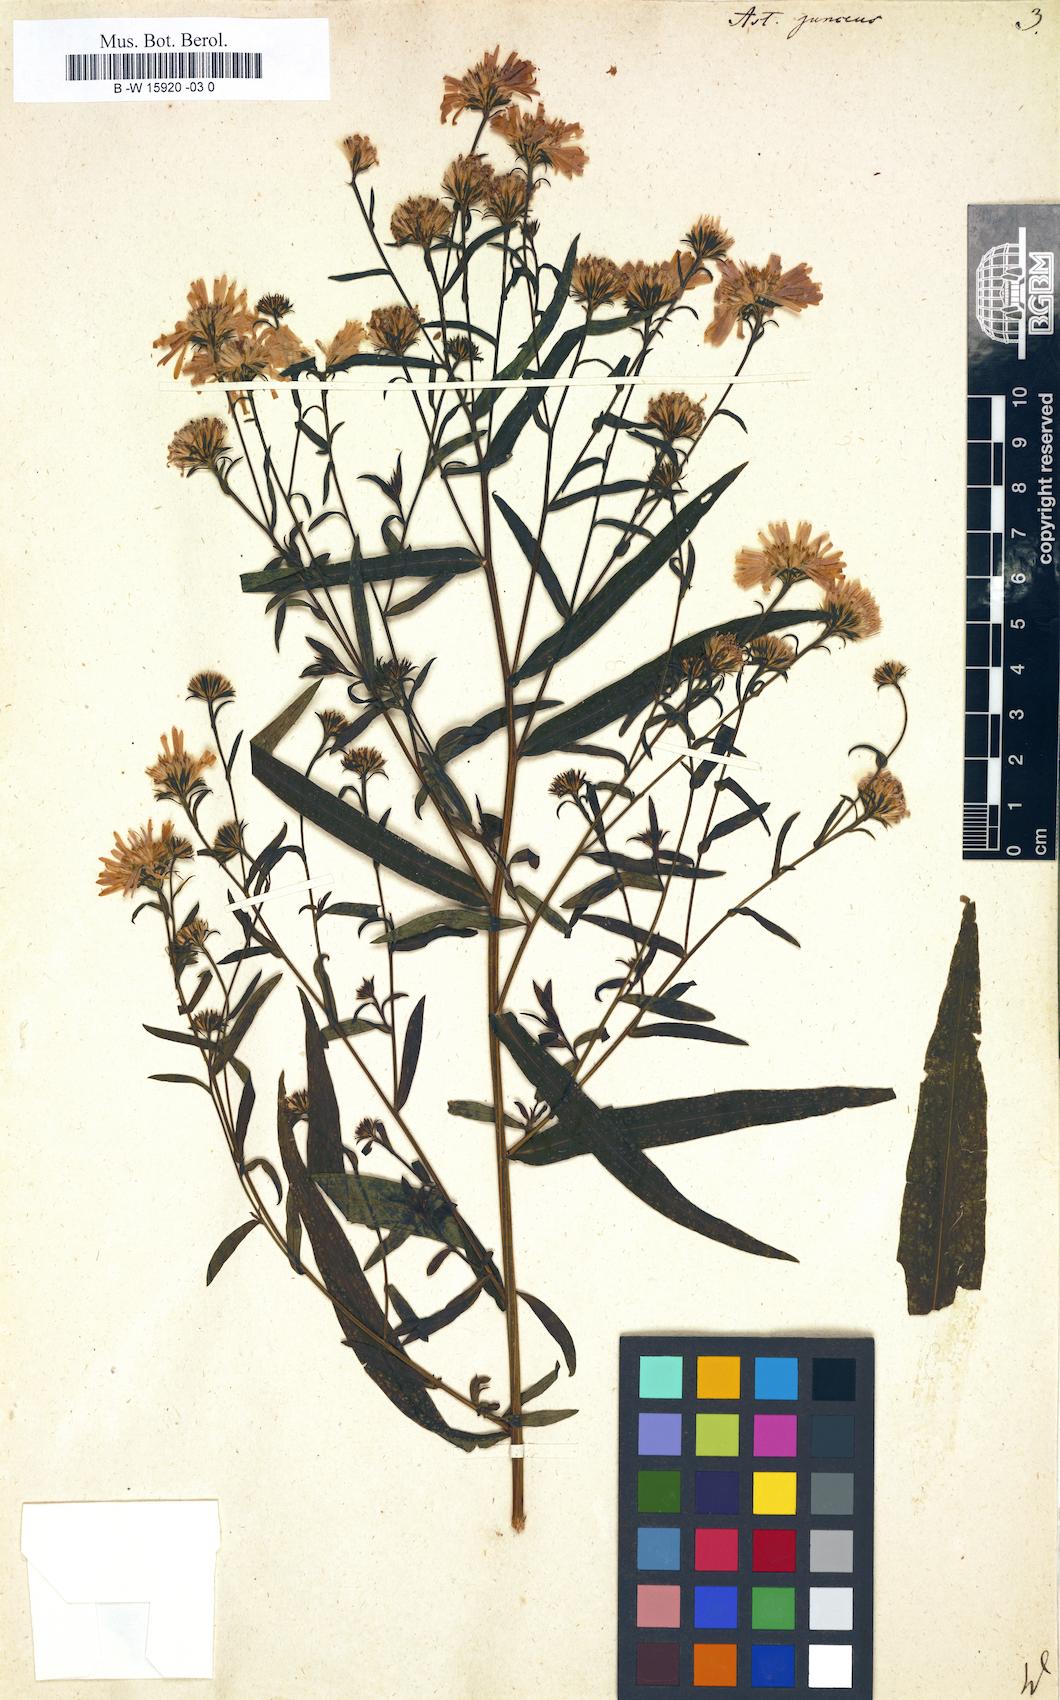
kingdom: Plantae
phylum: Tracheophyta
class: Magnoliopsida
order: Asterales
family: Asteraceae
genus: Symphyotrichum
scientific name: Symphyotrichum
